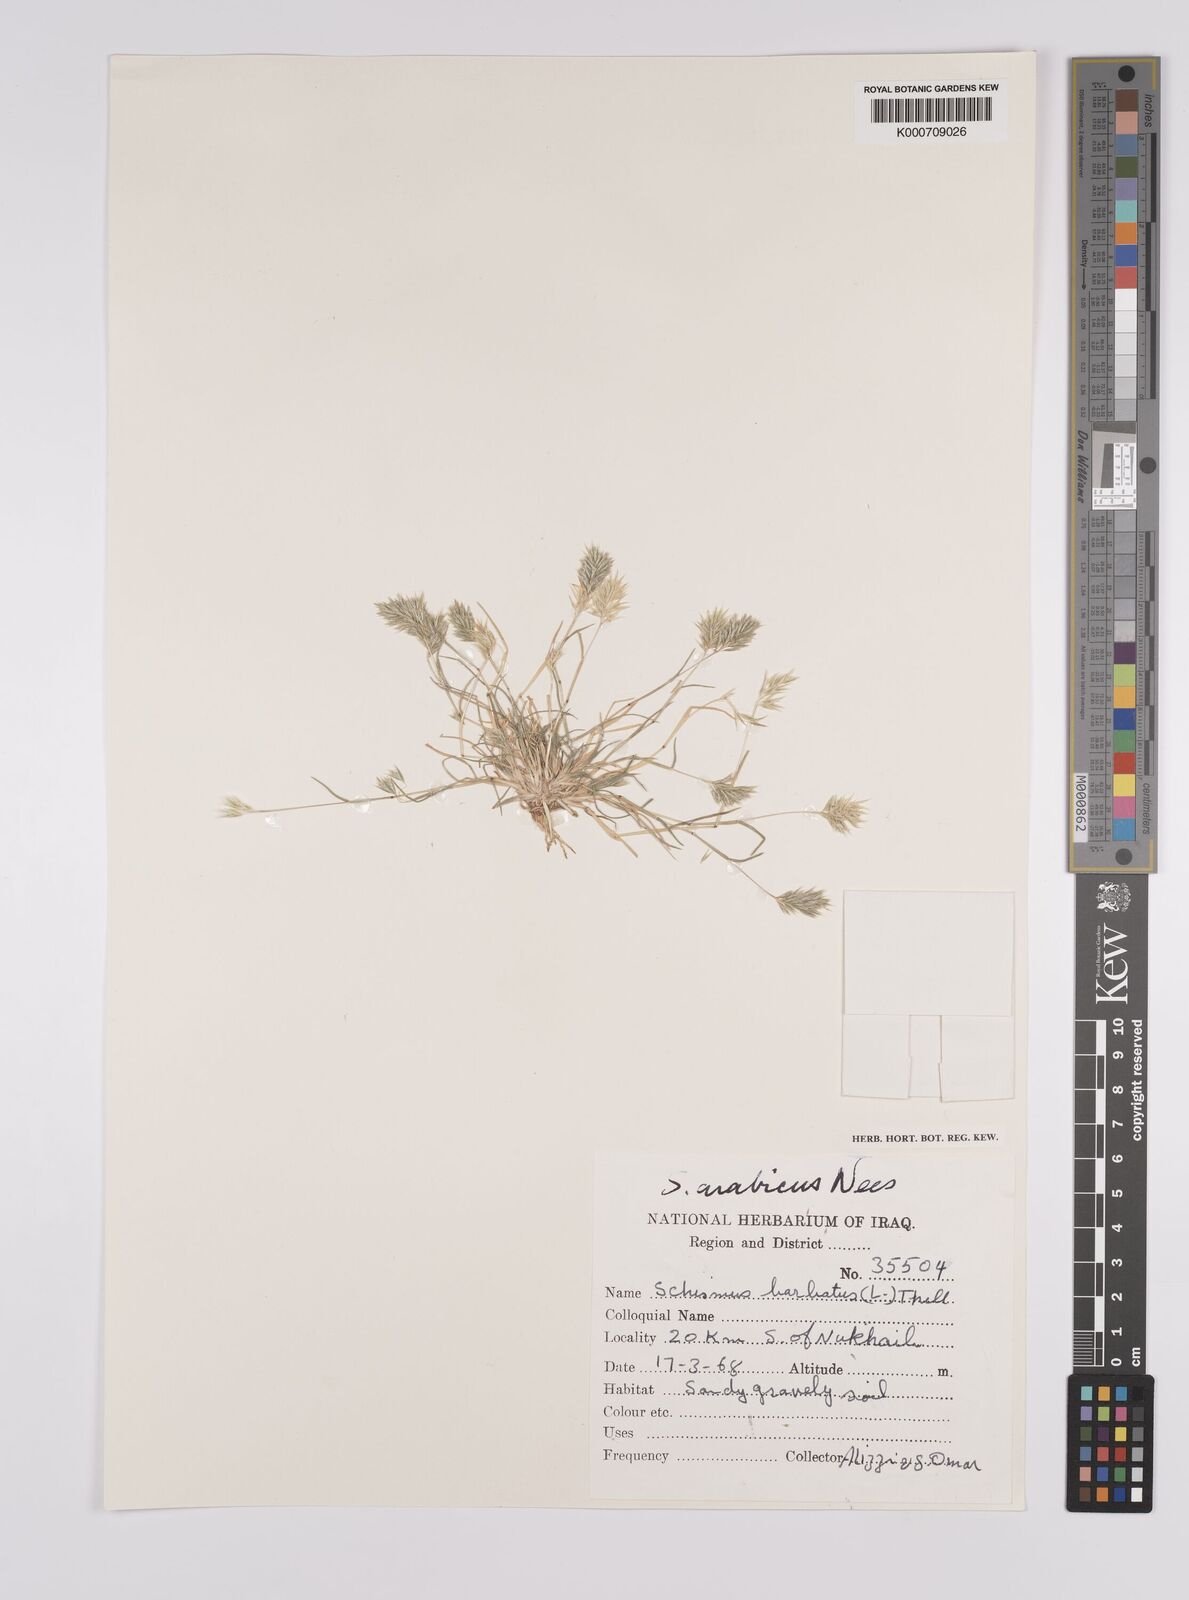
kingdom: Plantae
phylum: Tracheophyta
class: Liliopsida
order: Poales
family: Poaceae
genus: Schismus
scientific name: Schismus arabicus
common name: Arabian schismus
